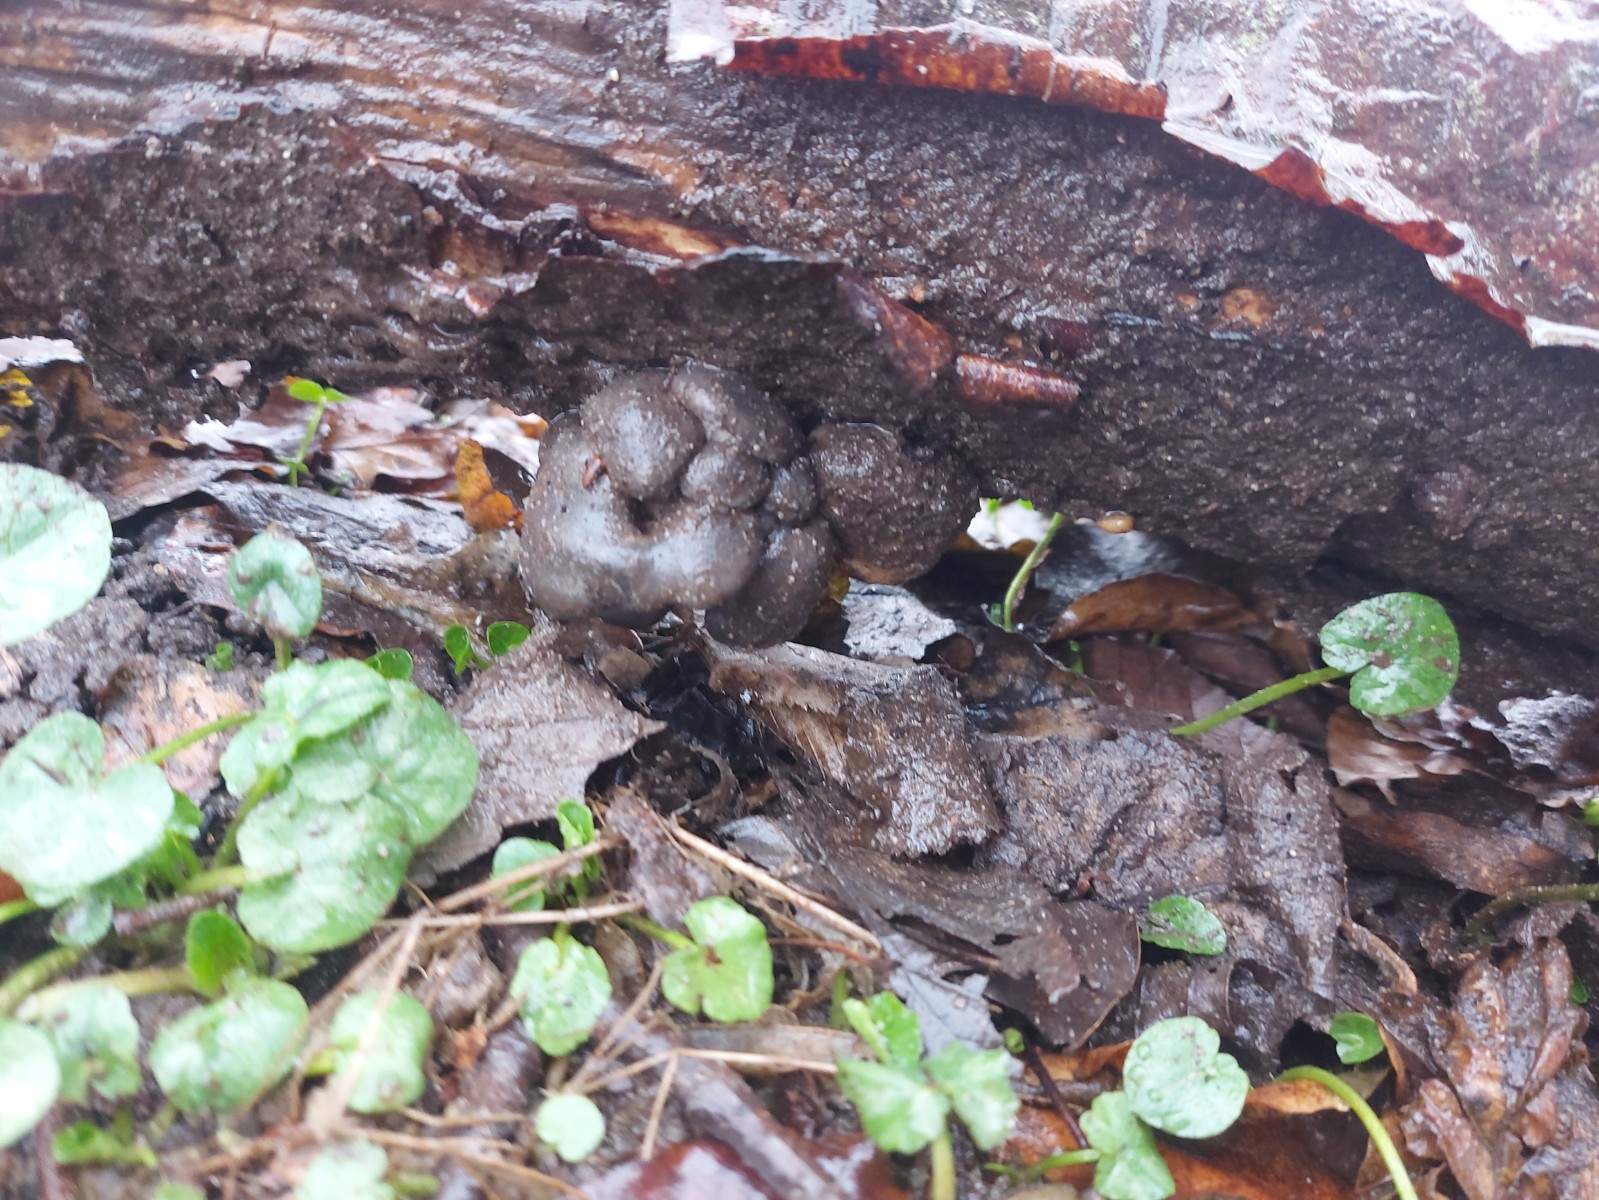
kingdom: Fungi
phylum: Basidiomycota
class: Agaricomycetes
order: Agaricales
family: Pleurotaceae
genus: Pleurotus
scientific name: Pleurotus ostreatus
